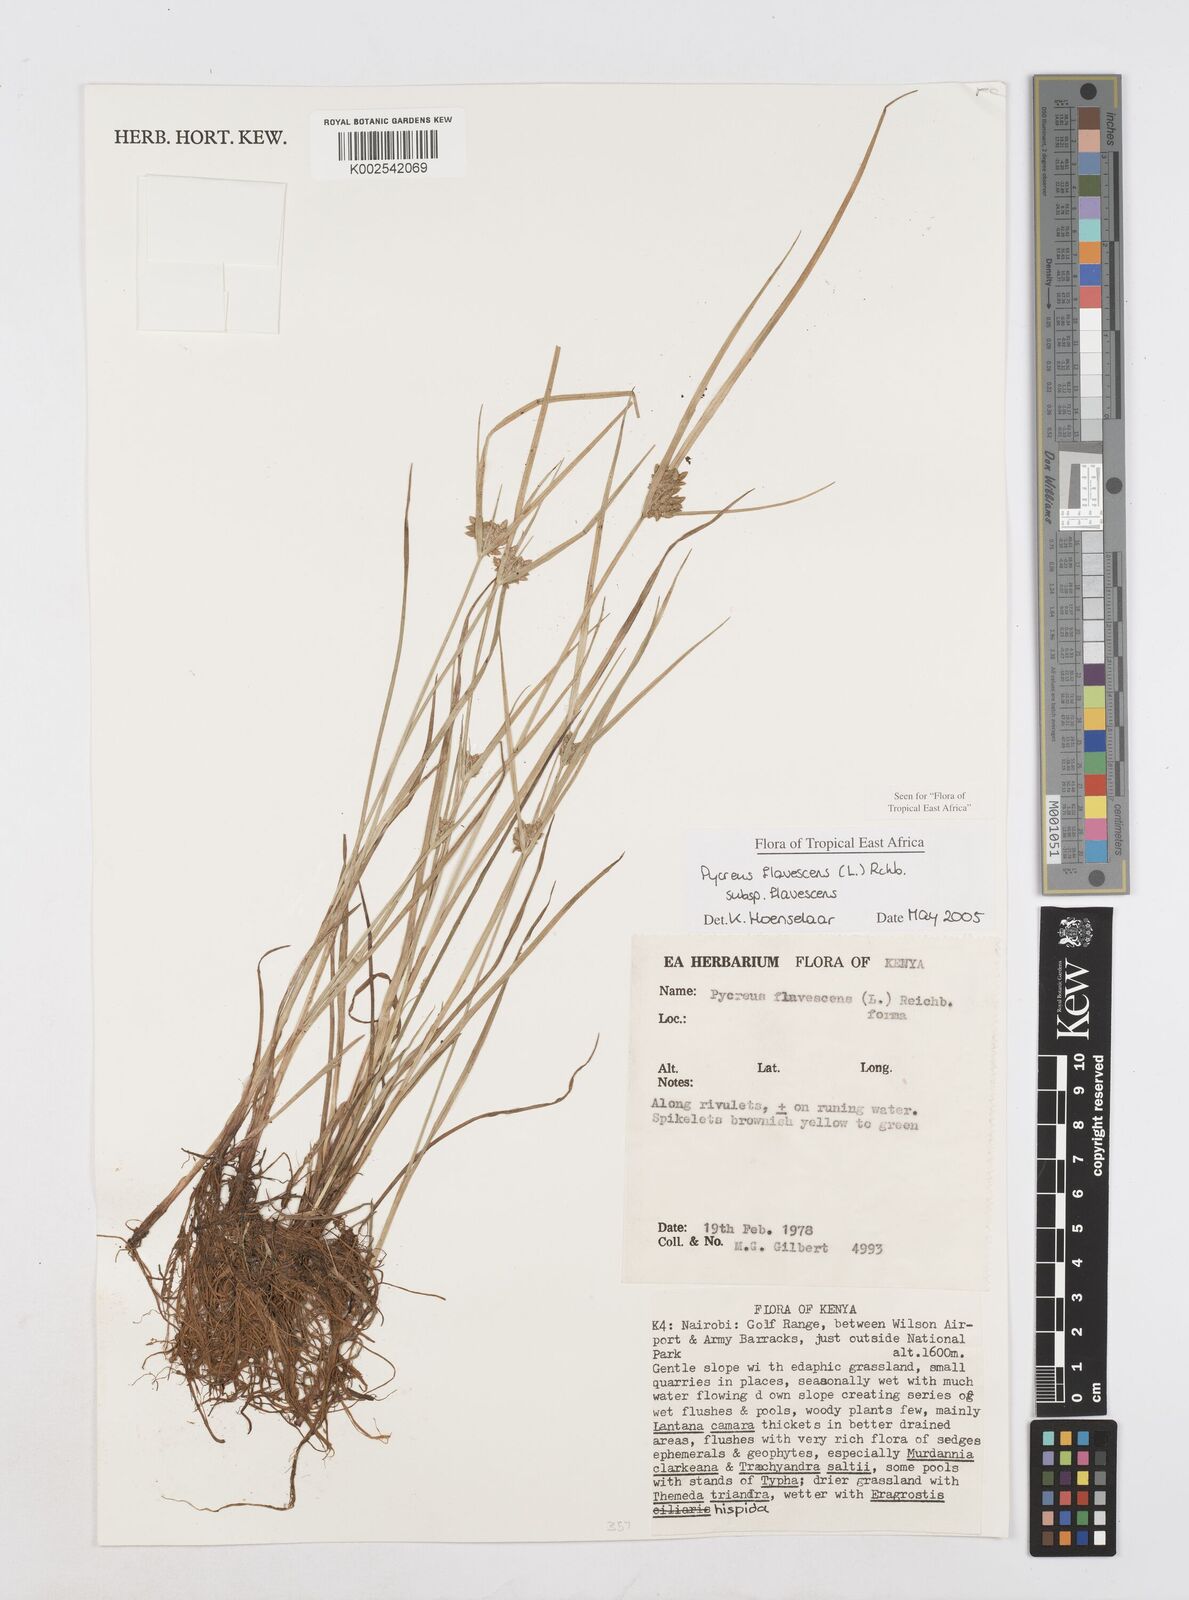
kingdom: Plantae
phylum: Tracheophyta
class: Liliopsida
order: Poales
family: Cyperaceae
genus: Cyperus
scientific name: Cyperus flavescens
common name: Yellow galingale
